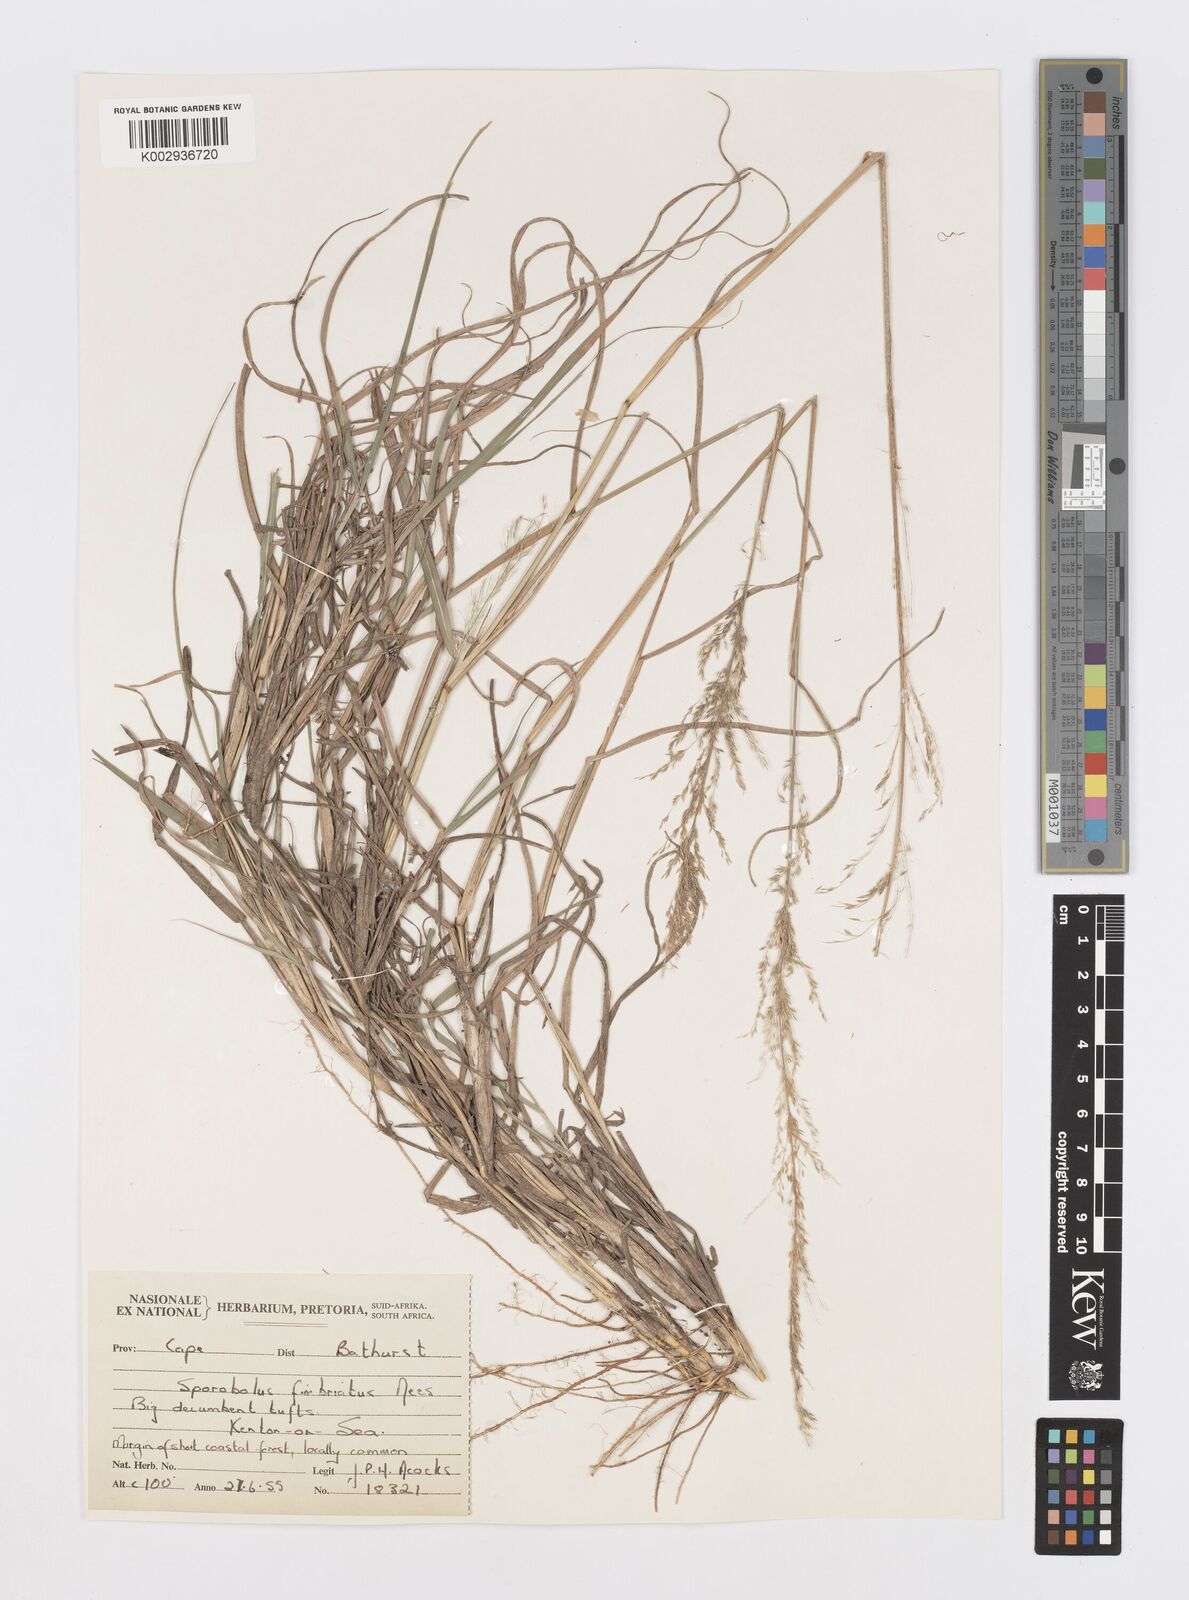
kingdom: Plantae
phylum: Tracheophyta
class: Liliopsida
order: Poales
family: Poaceae
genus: Sporobolus
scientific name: Sporobolus fimbriatus
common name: Fringed dropseed
